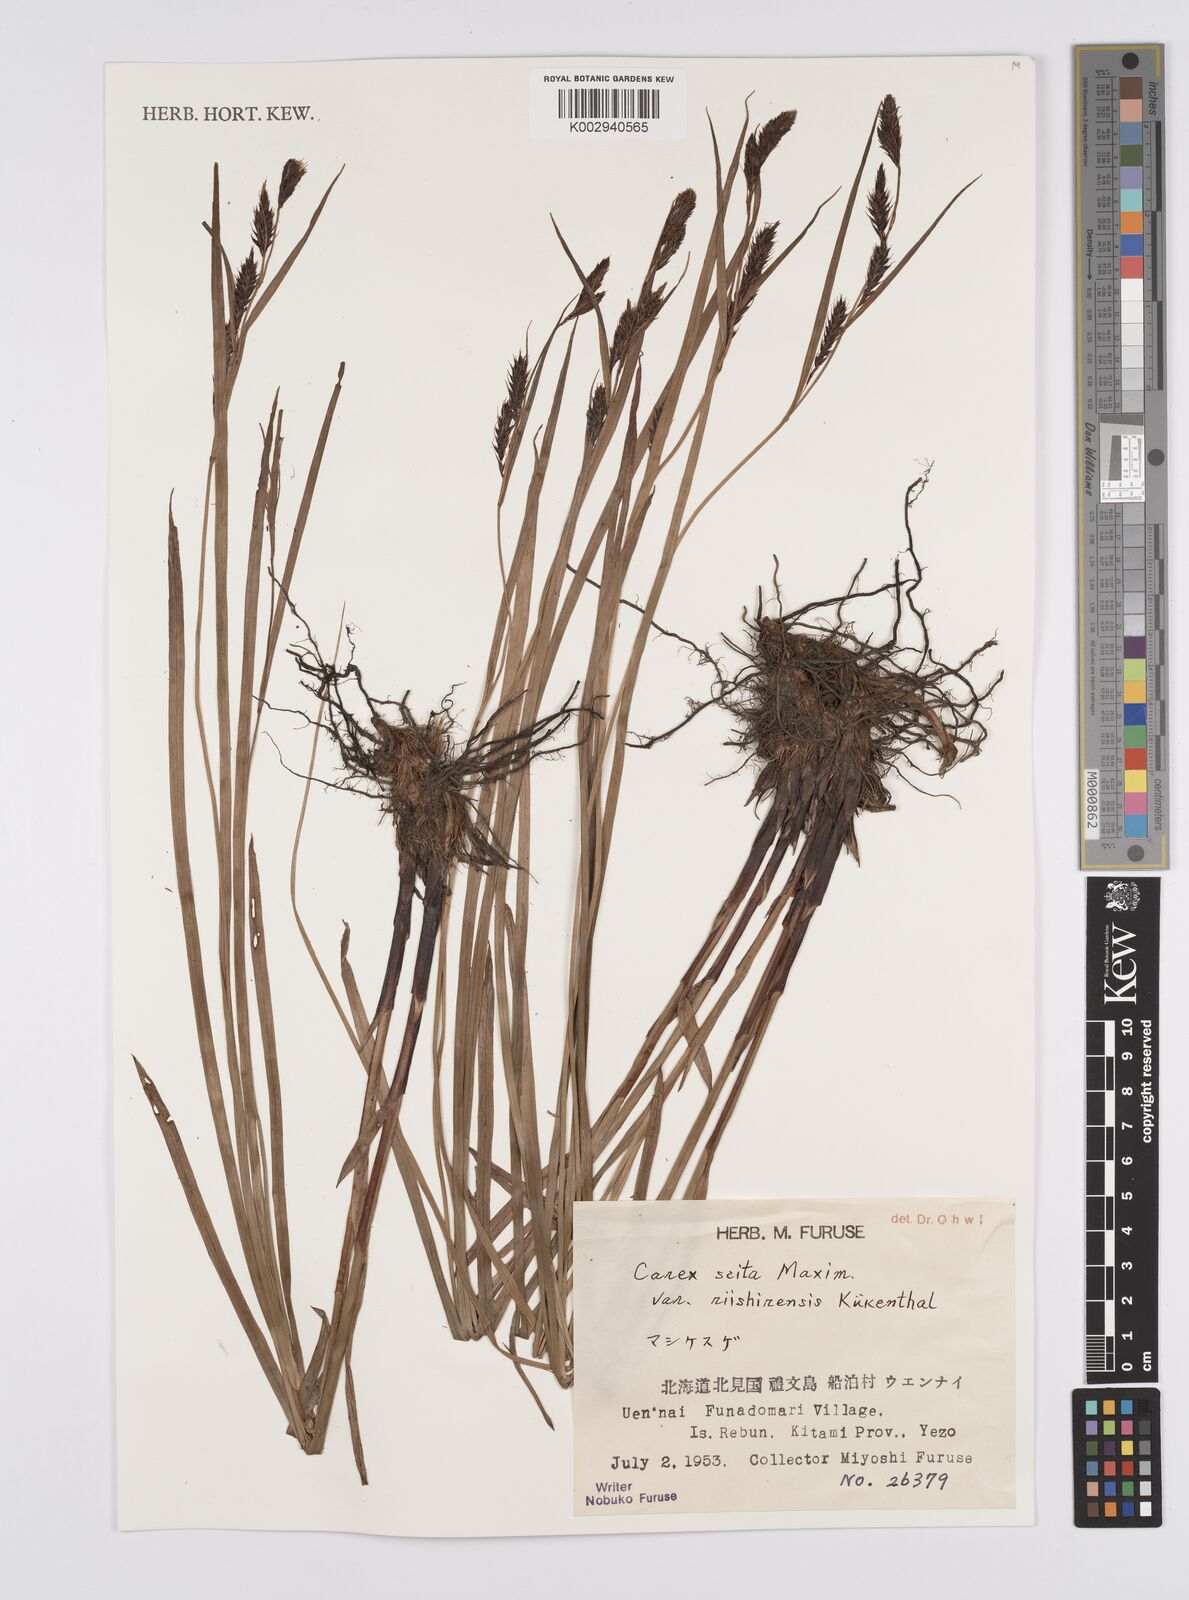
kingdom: Plantae
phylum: Tracheophyta
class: Liliopsida
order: Poales
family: Cyperaceae
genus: Carex
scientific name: Carex scita
